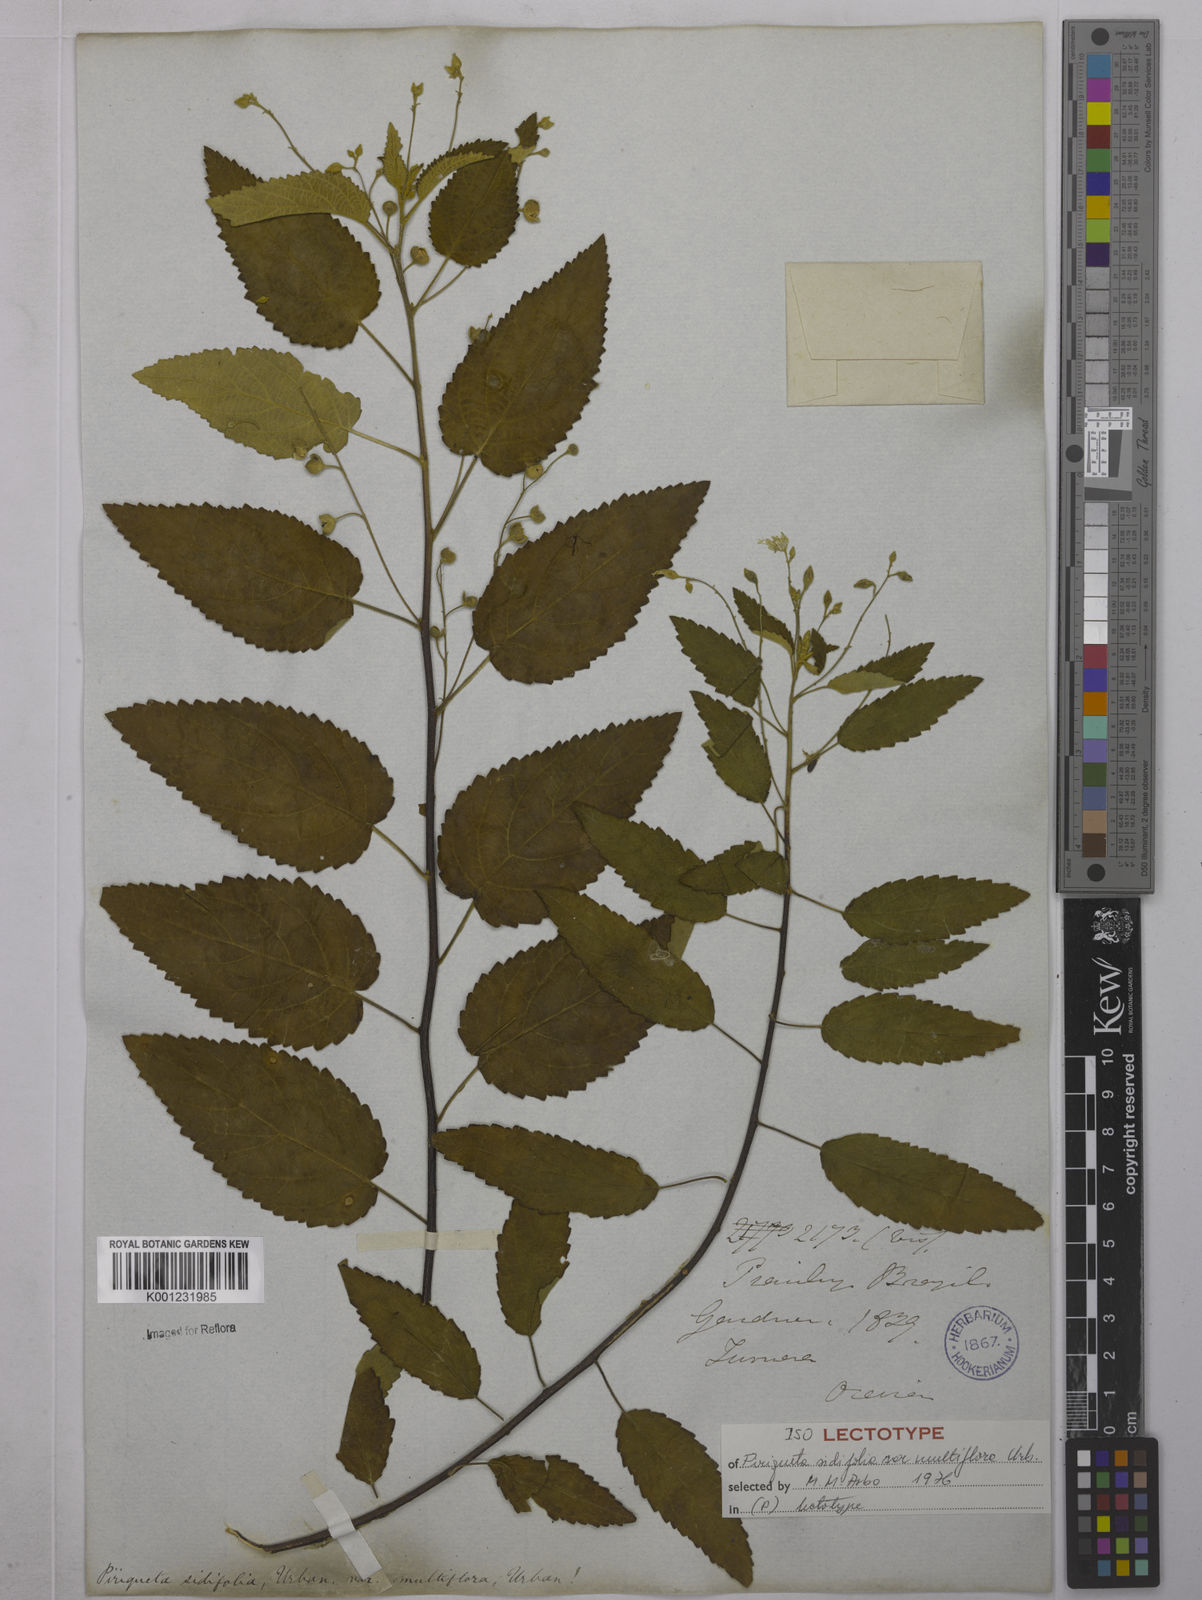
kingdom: Plantae
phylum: Tracheophyta
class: Magnoliopsida
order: Malpighiales
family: Turneraceae
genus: Piriqueta
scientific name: Piriqueta sidifolia
